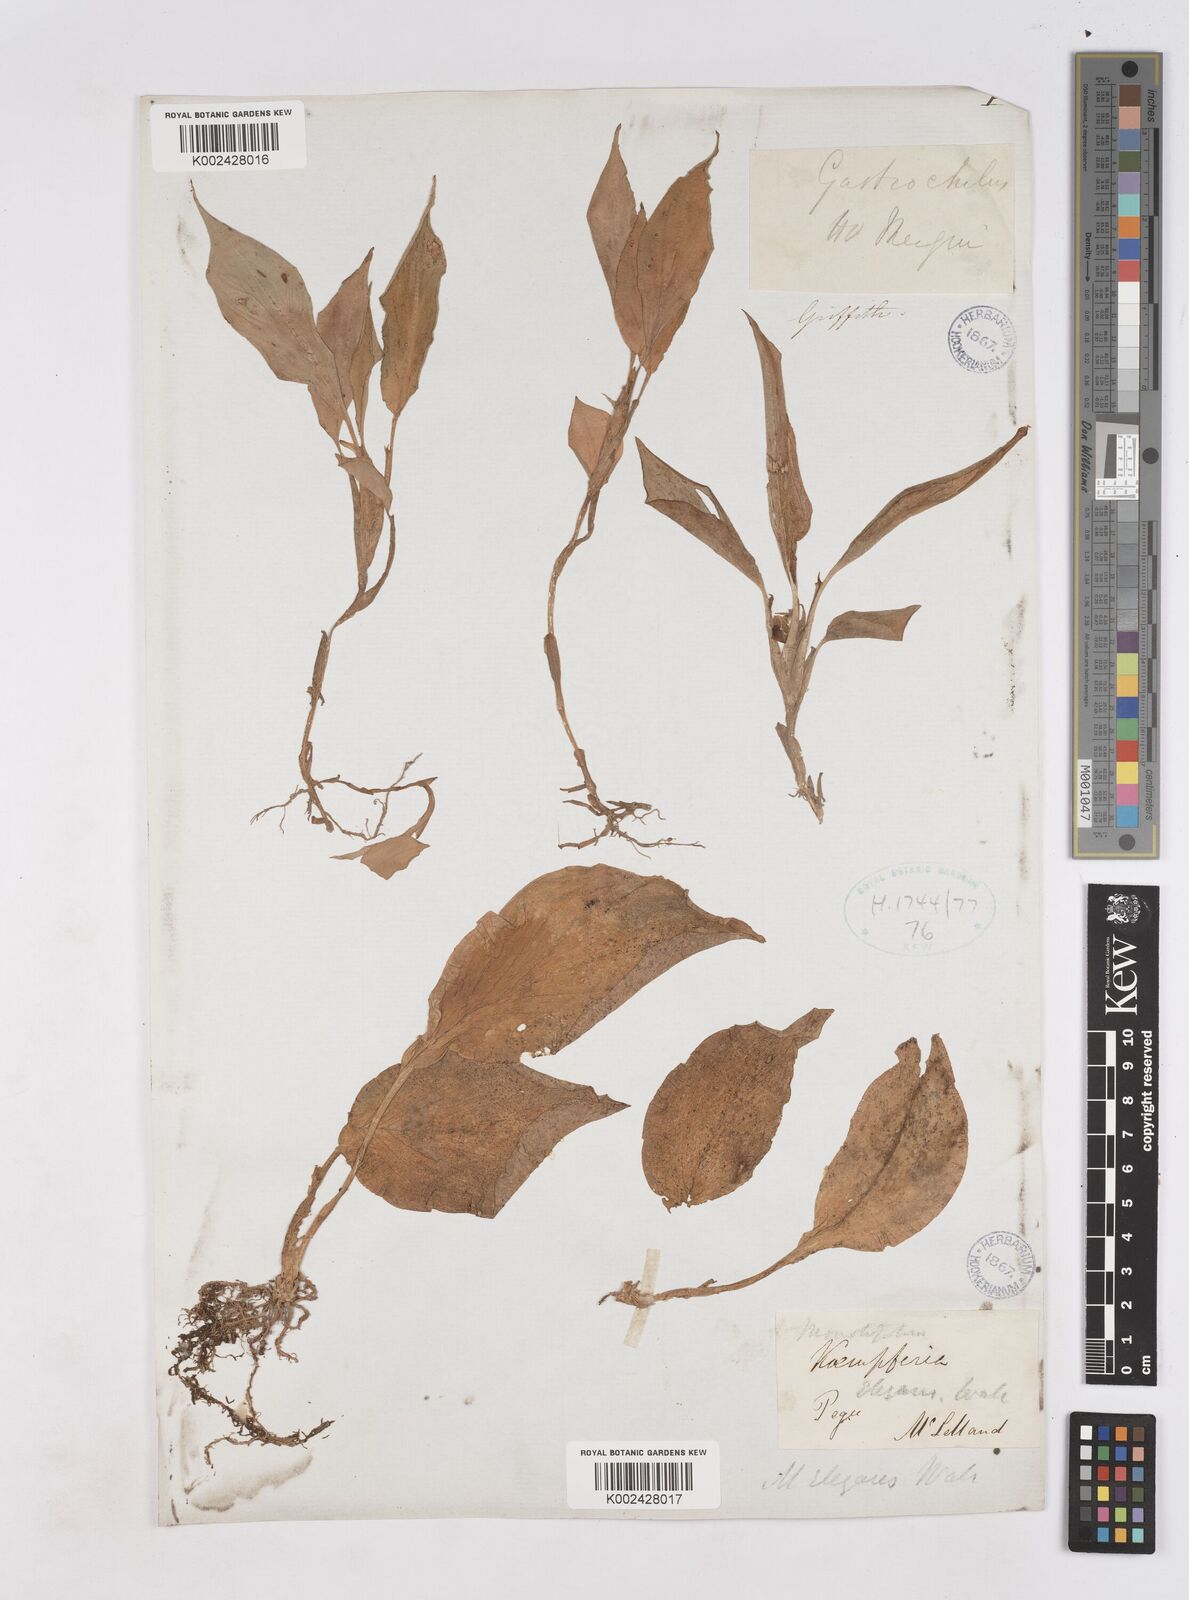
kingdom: Plantae
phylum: Tracheophyta
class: Liliopsida
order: Zingiberales
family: Zingiberaceae
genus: Kaempferia
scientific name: Kaempferia elegans
